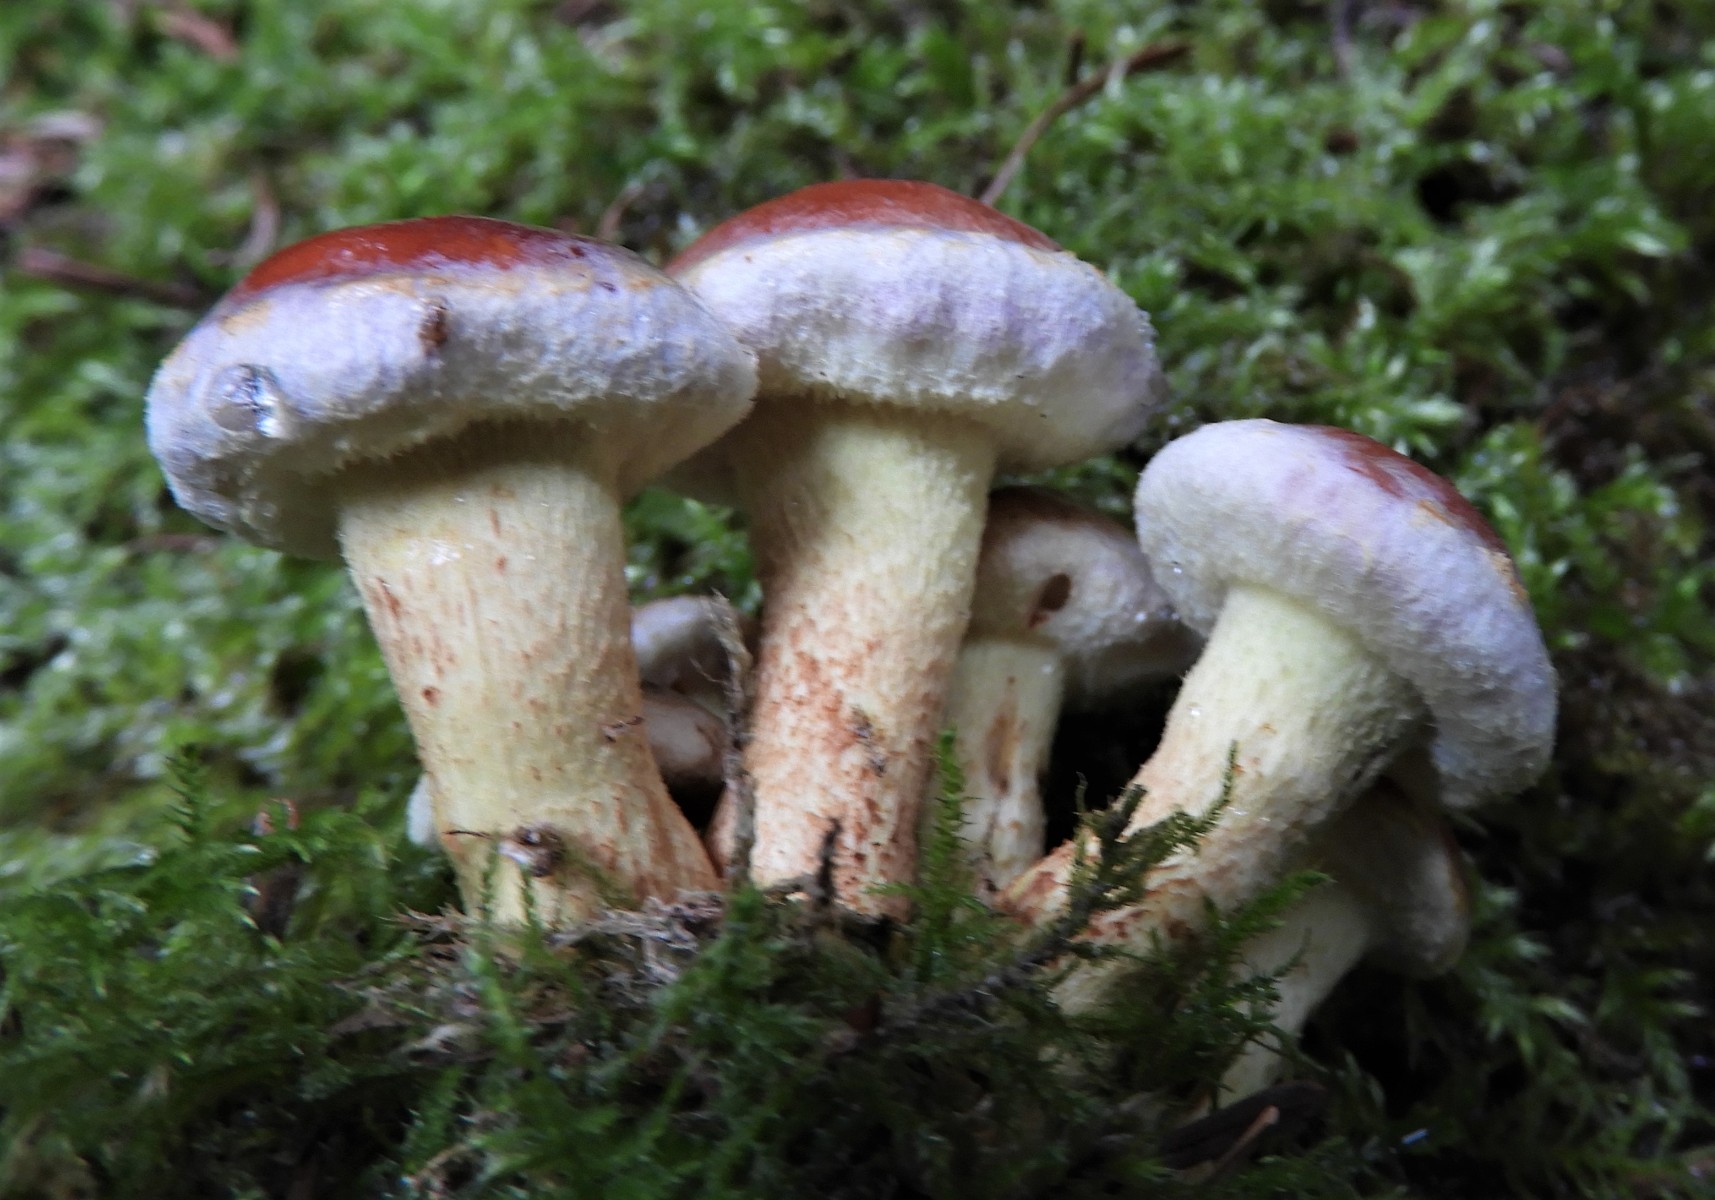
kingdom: Fungi
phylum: Basidiomycota
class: Agaricomycetes
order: Agaricales
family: Strophariaceae
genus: Hypholoma
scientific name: Hypholoma lateritium
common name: teglrød svovlhat
